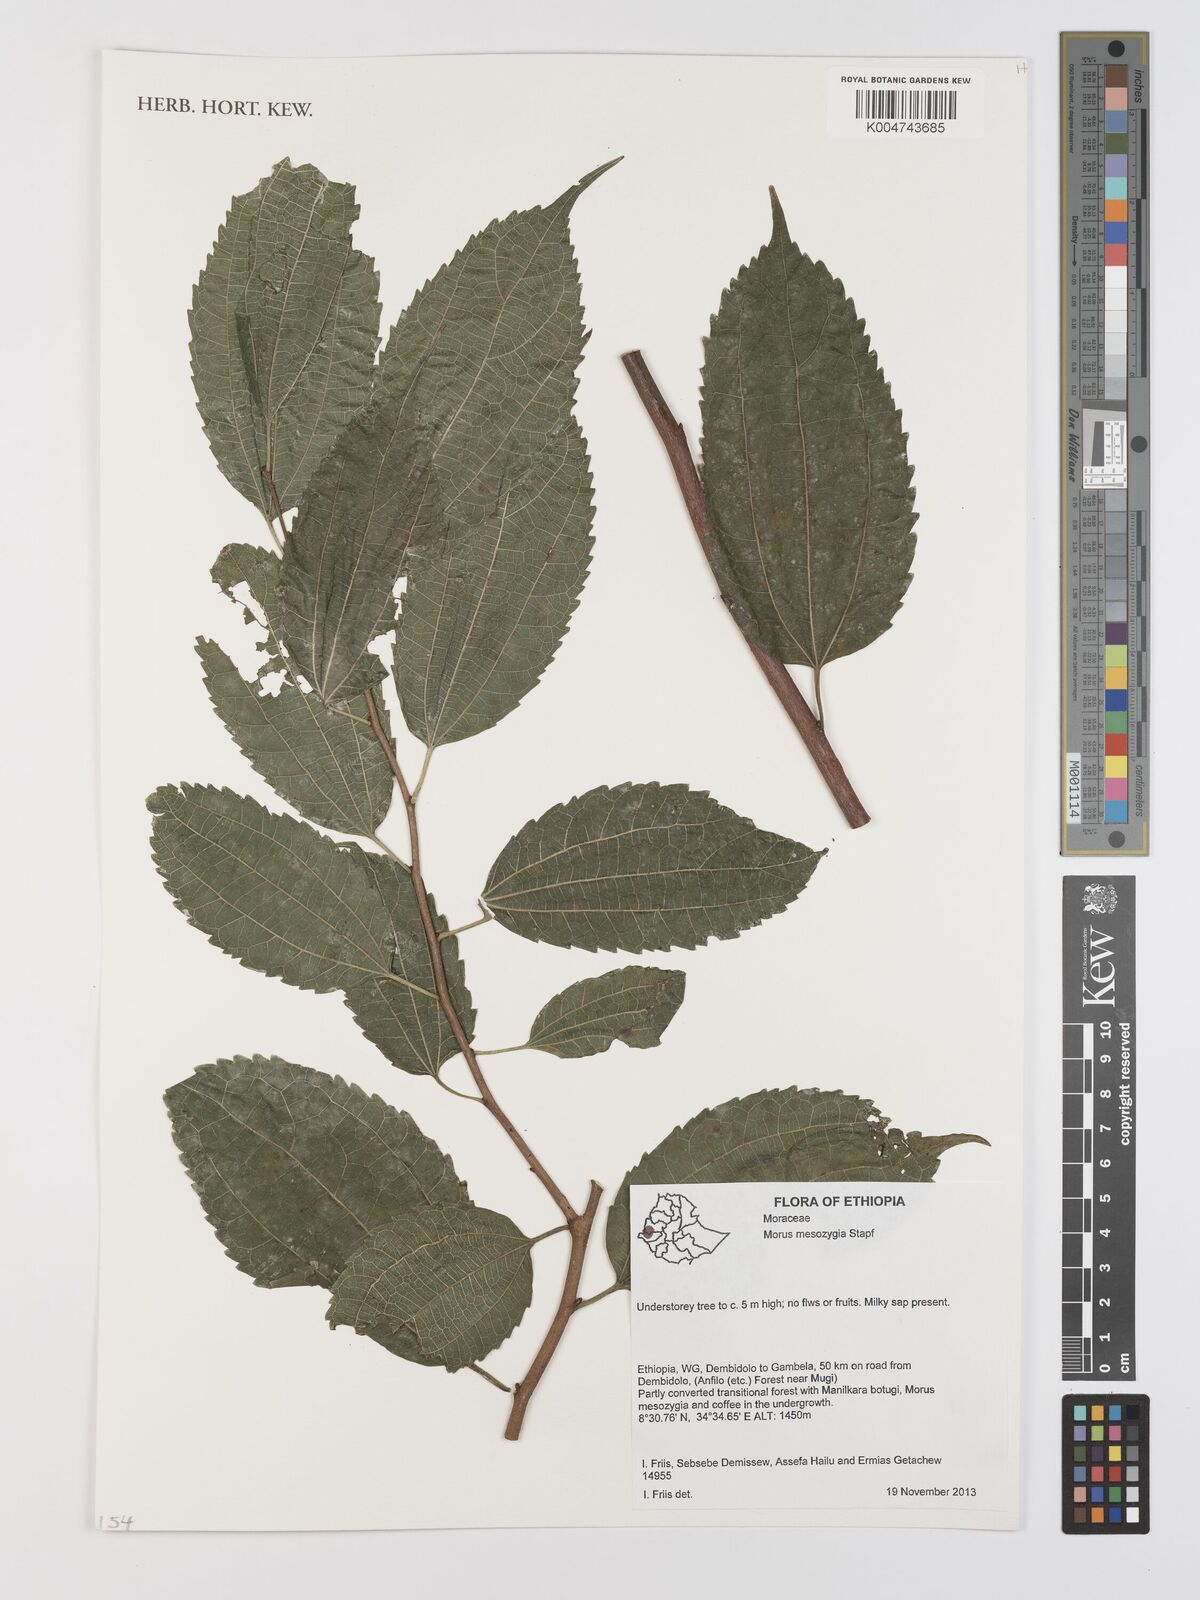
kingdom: Plantae
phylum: Tracheophyta
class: Magnoliopsida
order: Rosales
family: Moraceae
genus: Afromorus
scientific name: Afromorus mesozygia
